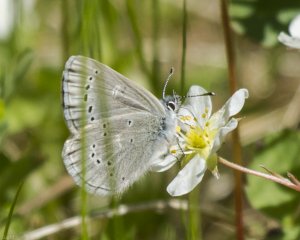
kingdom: Animalia
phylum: Arthropoda
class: Insecta
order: Lepidoptera
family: Lycaenidae
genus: Glaucopsyche
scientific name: Glaucopsyche lygdamus
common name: Silvery Blue
